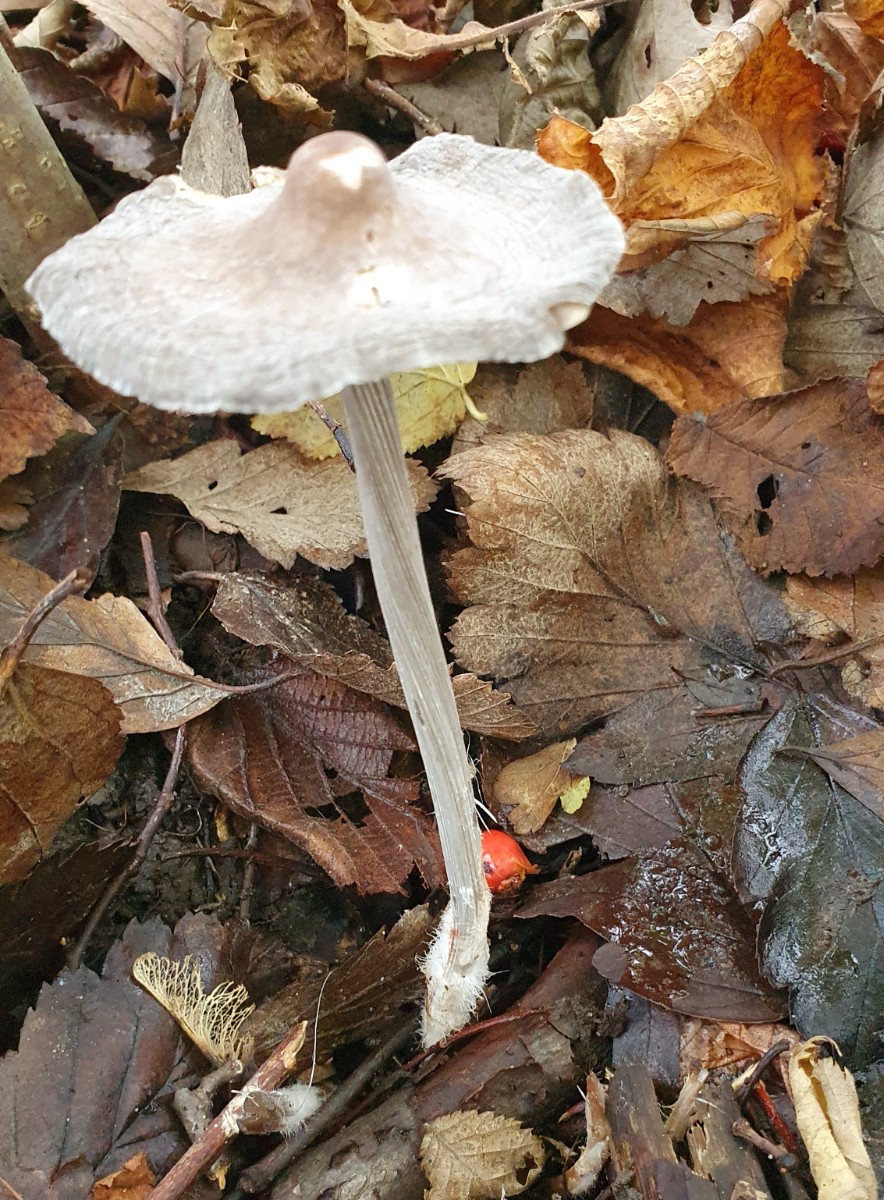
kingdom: Fungi
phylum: Basidiomycota
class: Agaricomycetes
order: Agaricales
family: Mycenaceae
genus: Mycena
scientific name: Mycena polygramma
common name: mangestribet huesvamp
